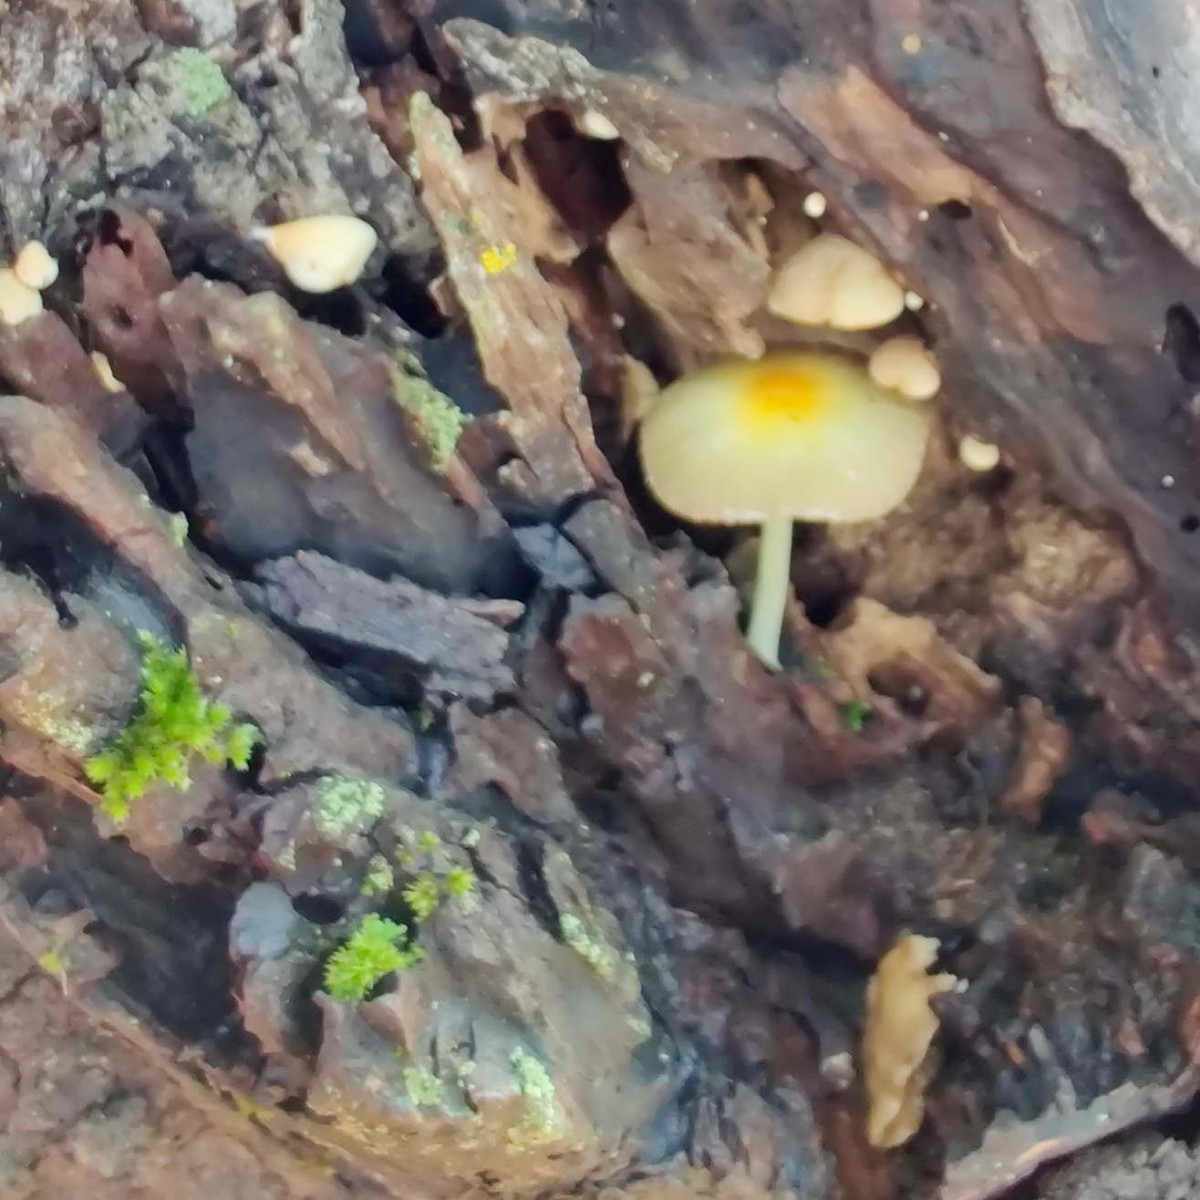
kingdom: Fungi
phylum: Basidiomycota
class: Agaricomycetes
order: Agaricales
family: Bolbitiaceae
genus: Bolbitius
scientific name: Bolbitius titubans
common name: almindelig gulhat
